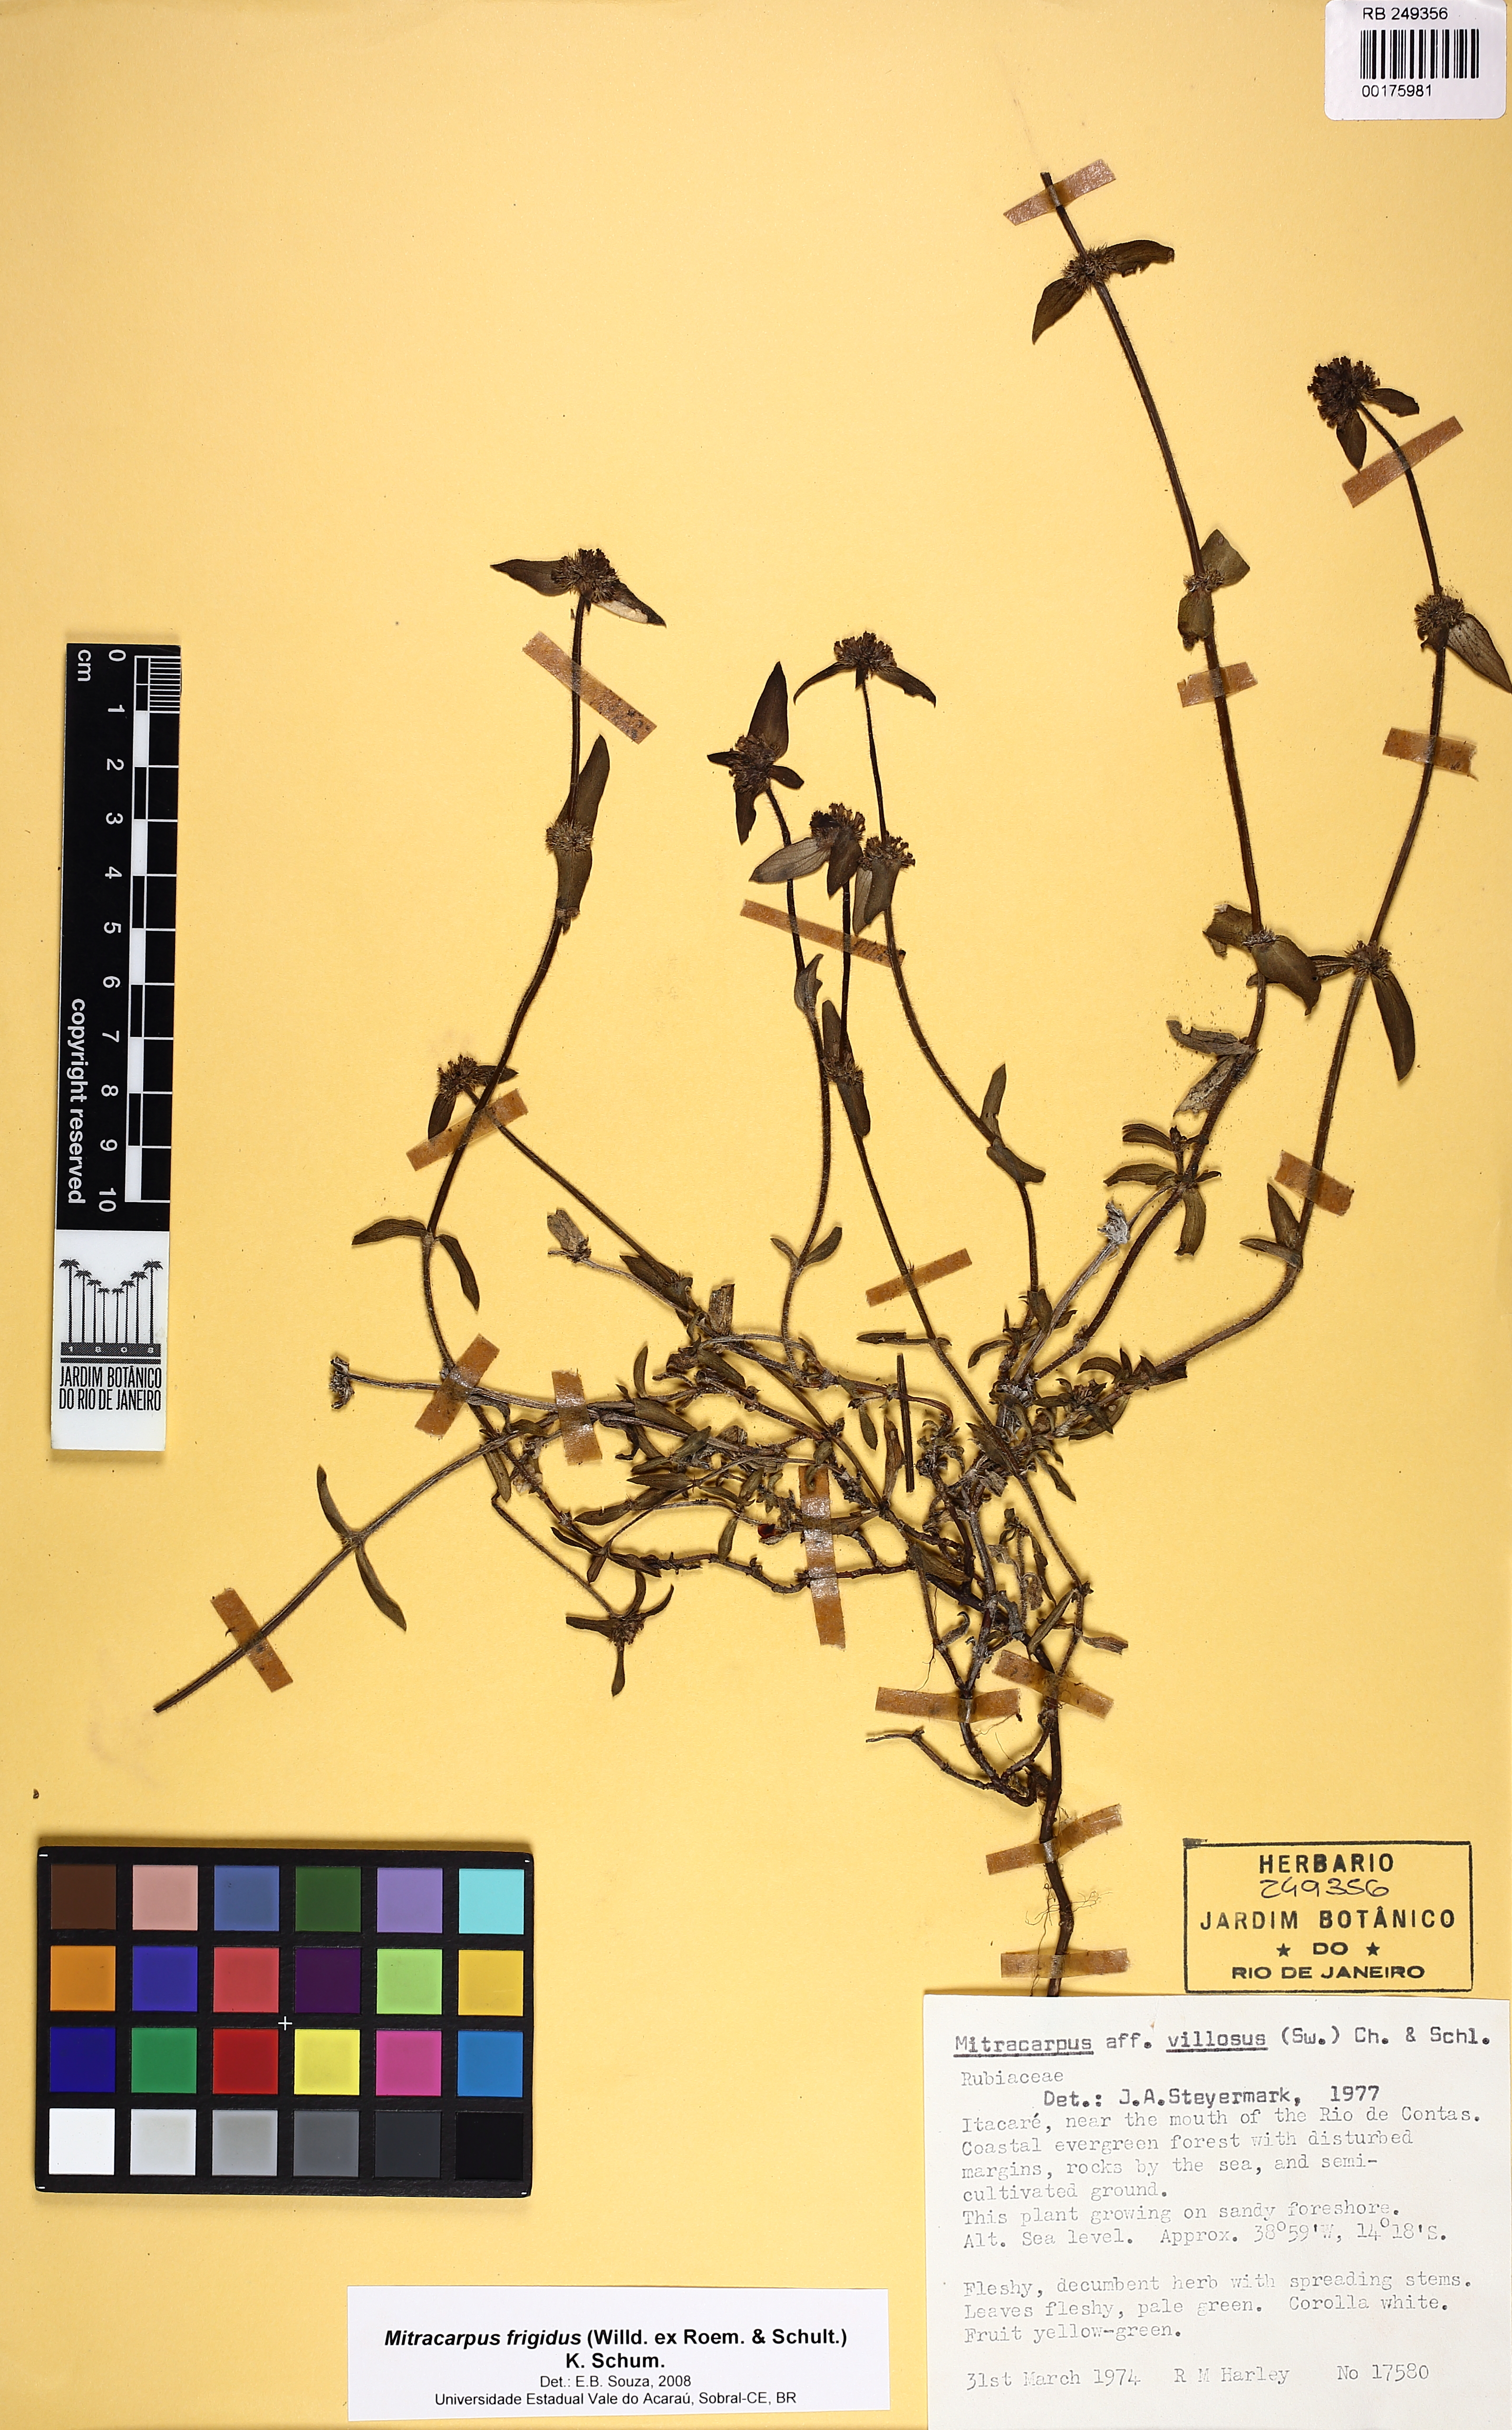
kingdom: Plantae
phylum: Tracheophyta
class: Magnoliopsida
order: Gentianales
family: Rubiaceae
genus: Mitracarpus
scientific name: Mitracarpus frigidus
